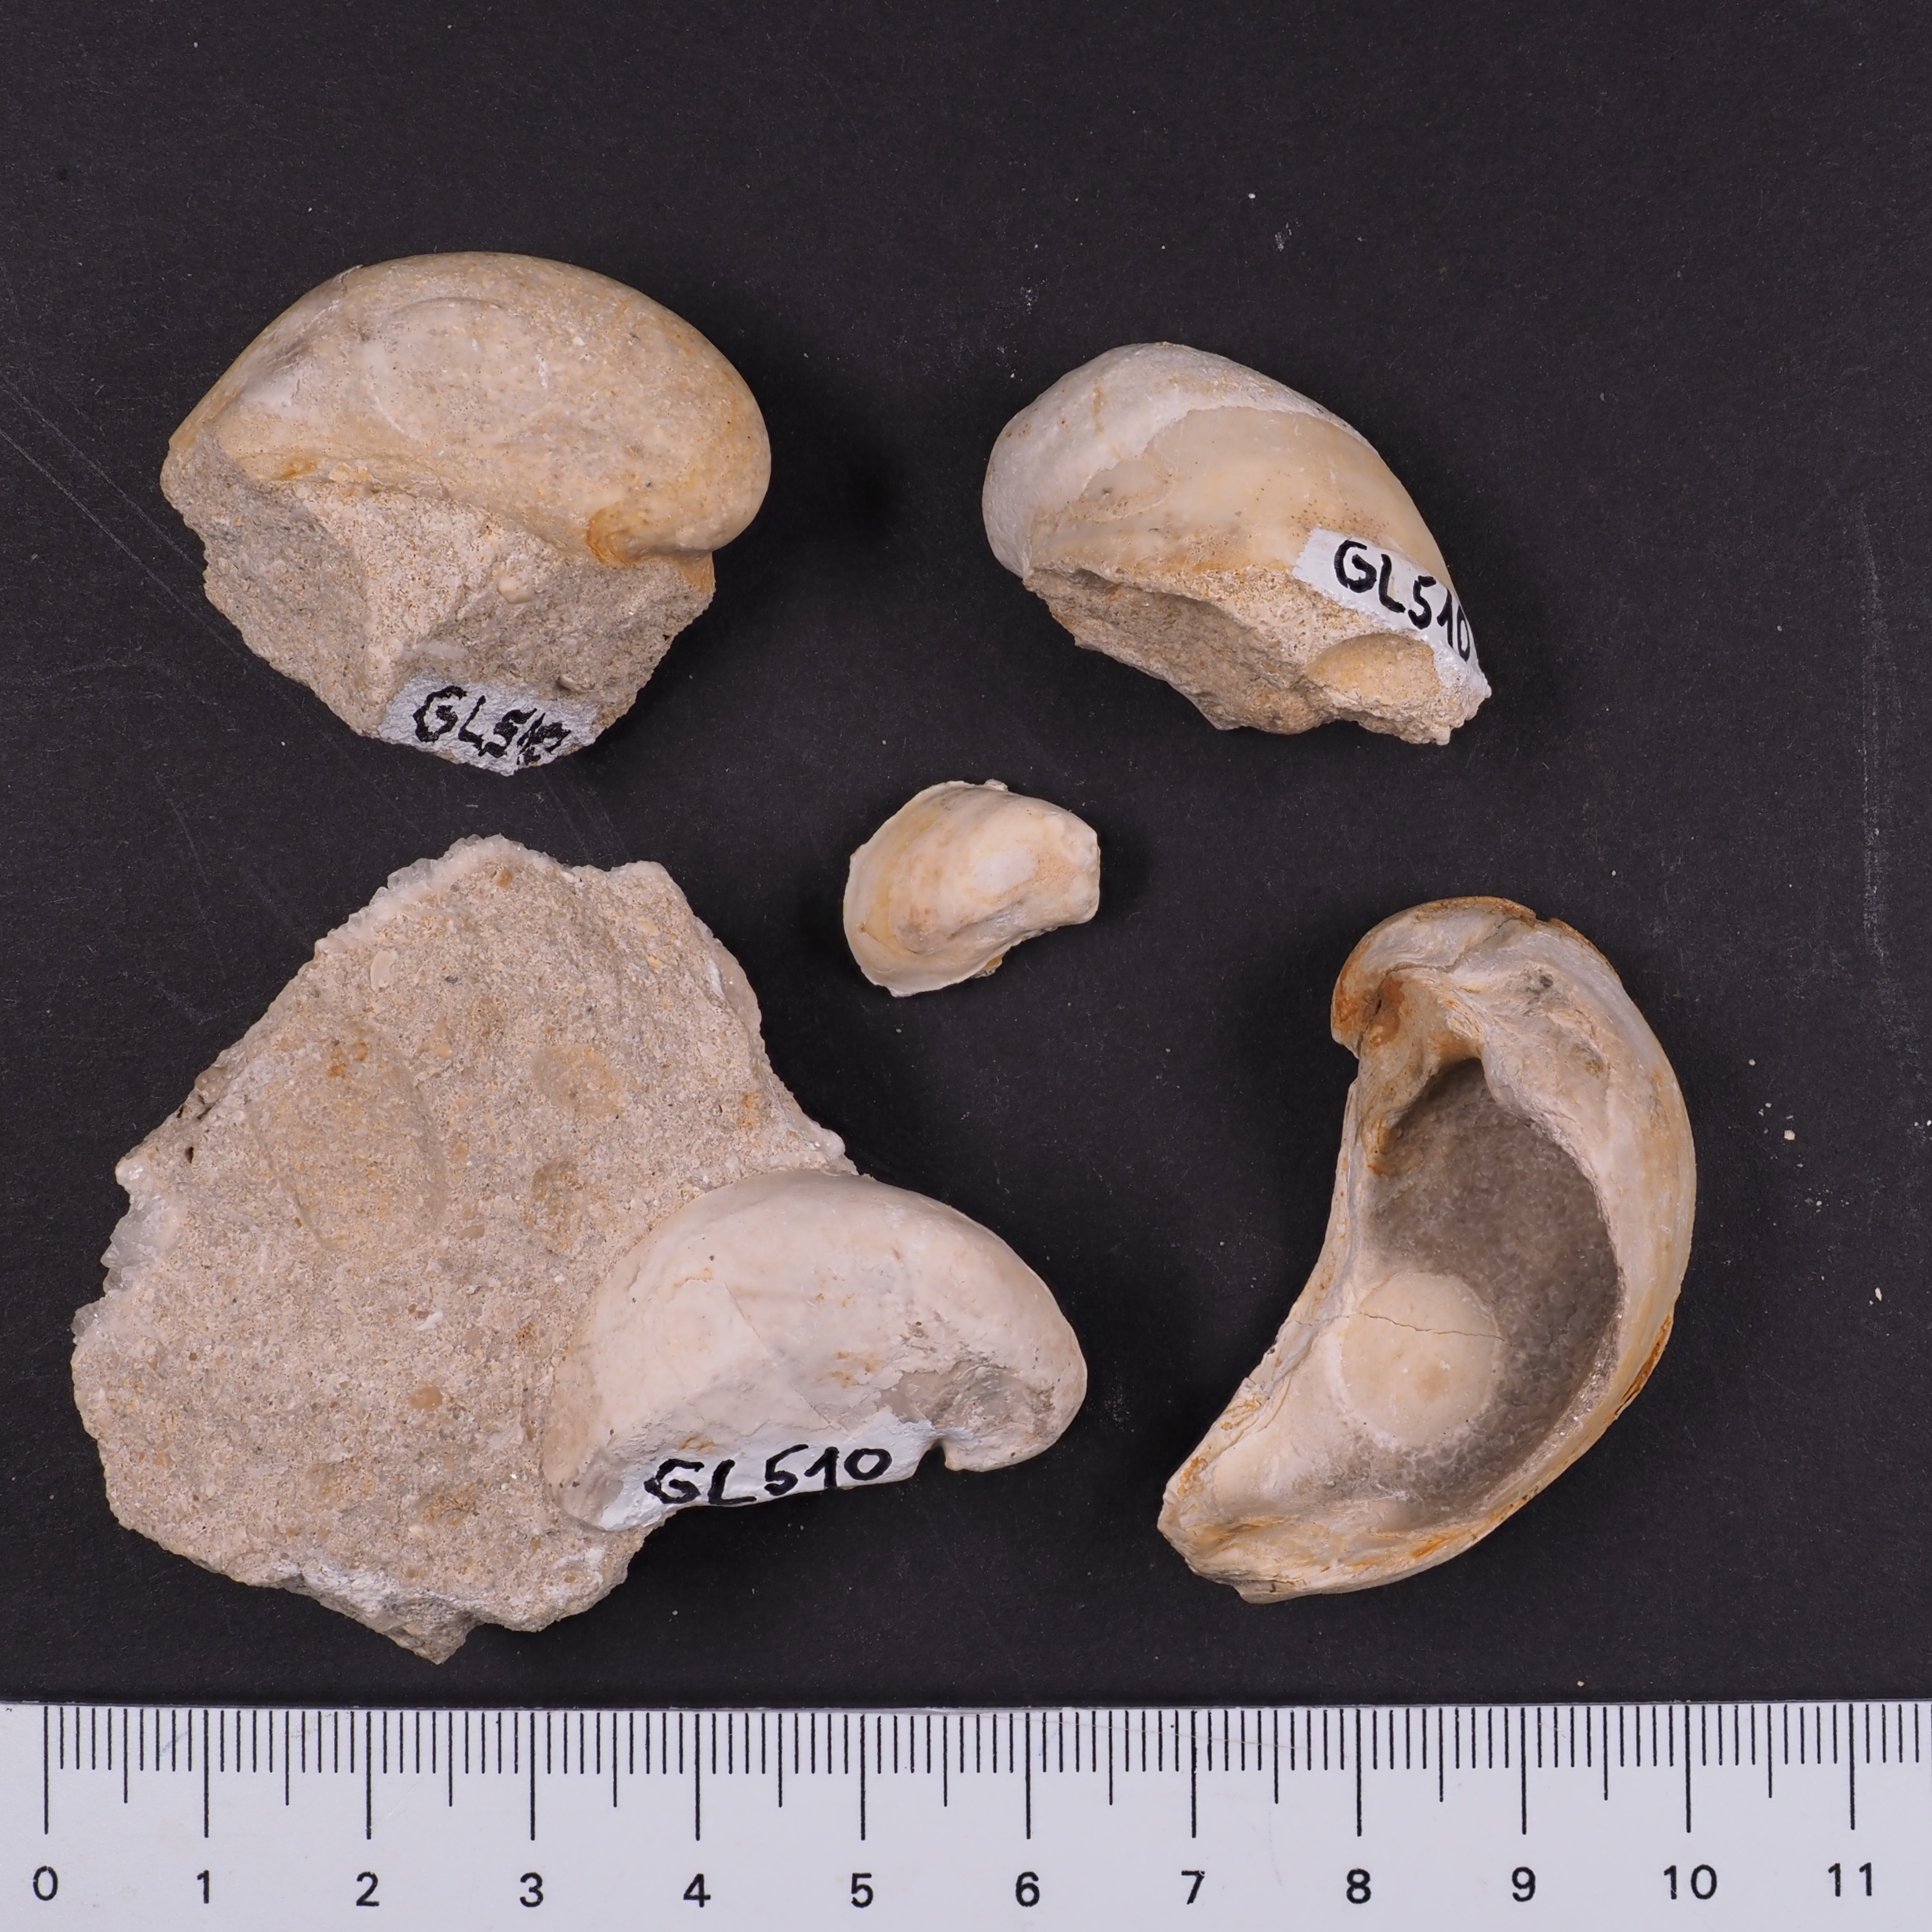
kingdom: Animalia
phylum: Mollusca
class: Bivalvia
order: Ostreida
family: Ostreidae
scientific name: Ostreidae
